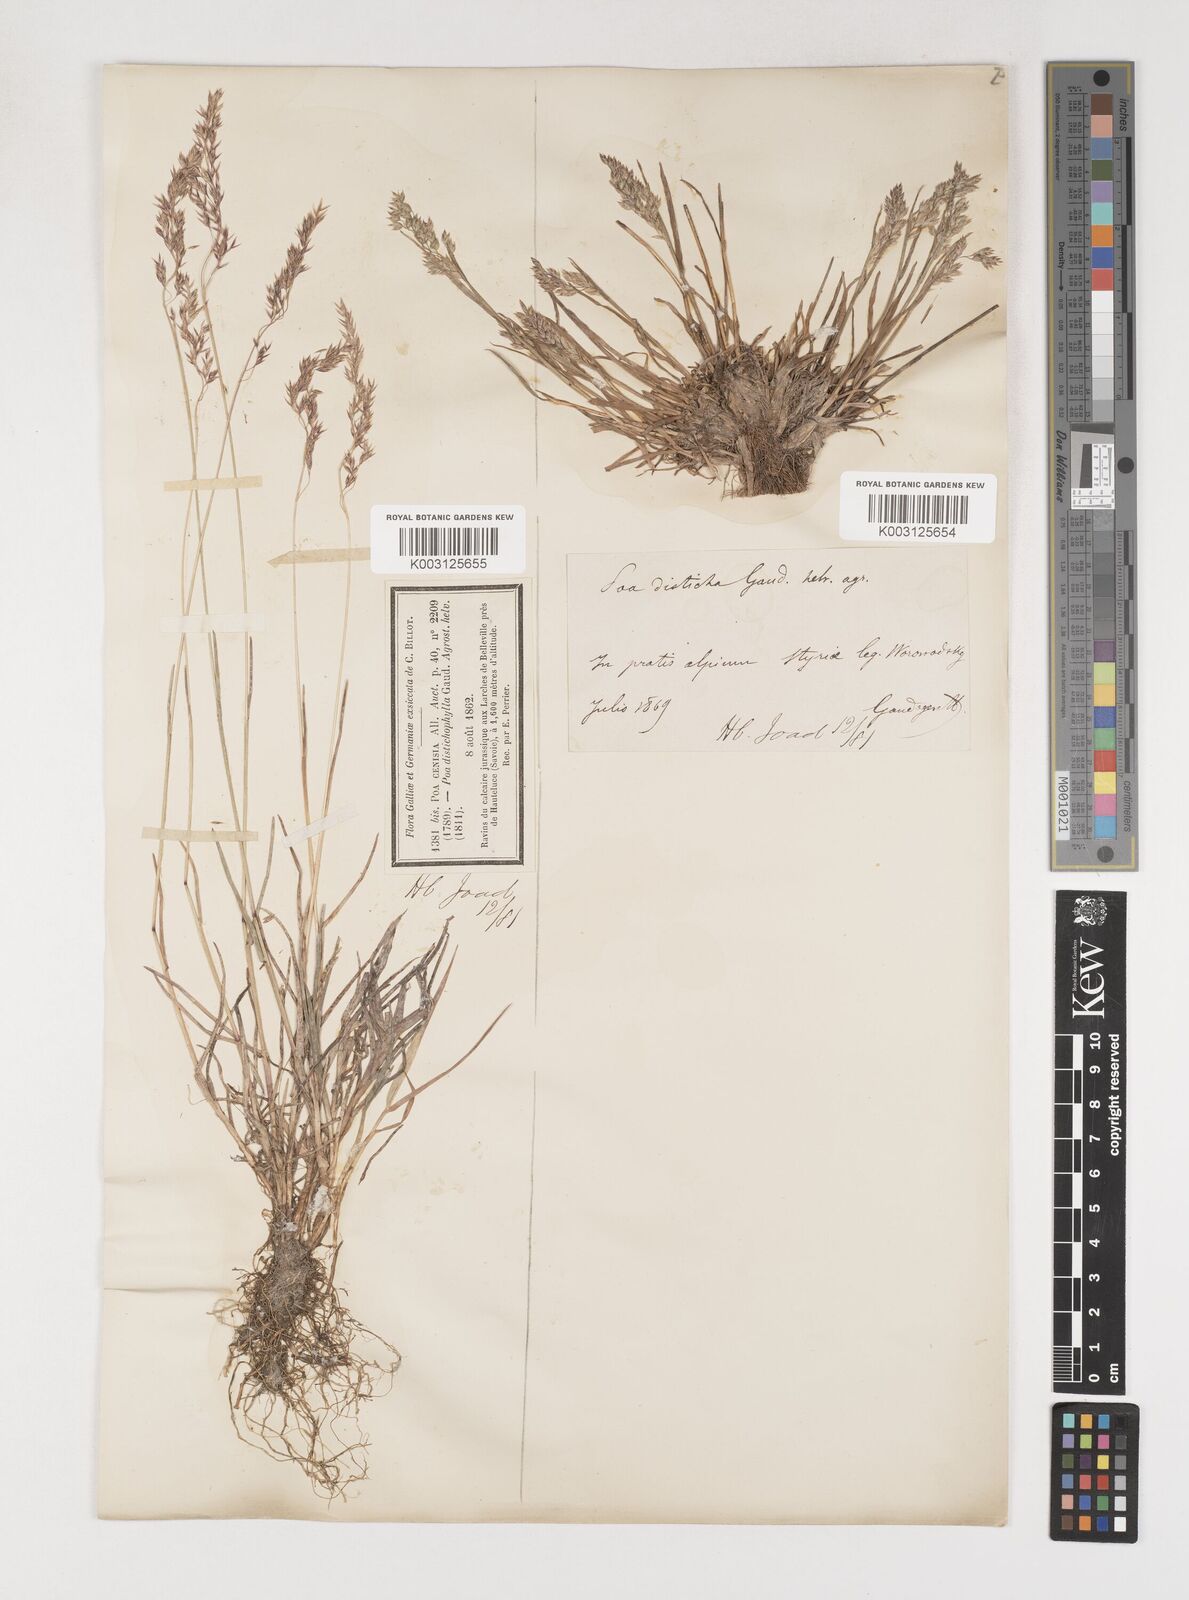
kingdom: Plantae
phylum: Tracheophyta
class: Liliopsida
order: Poales
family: Poaceae
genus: Poa
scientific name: Poa
